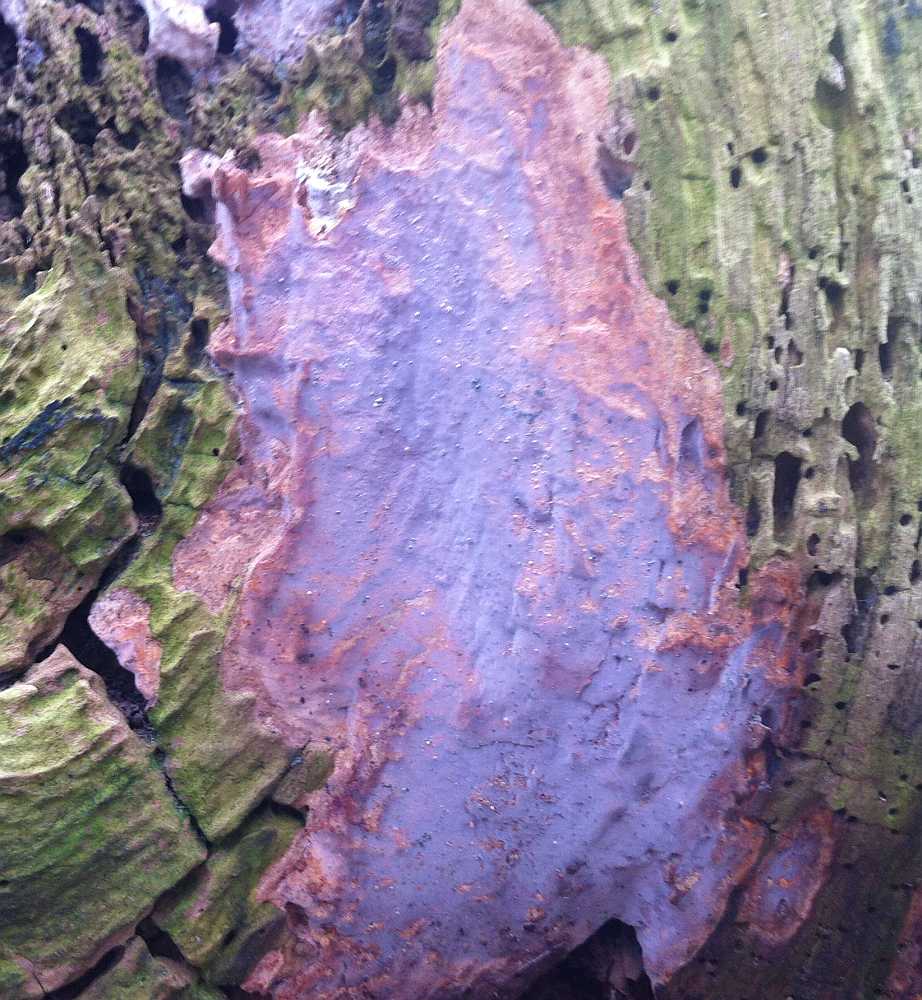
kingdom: Fungi
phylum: Basidiomycota
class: Agaricomycetes
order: Russulales
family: Peniophoraceae
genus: Scytinostroma
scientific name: Scytinostroma hemidichophyticum
